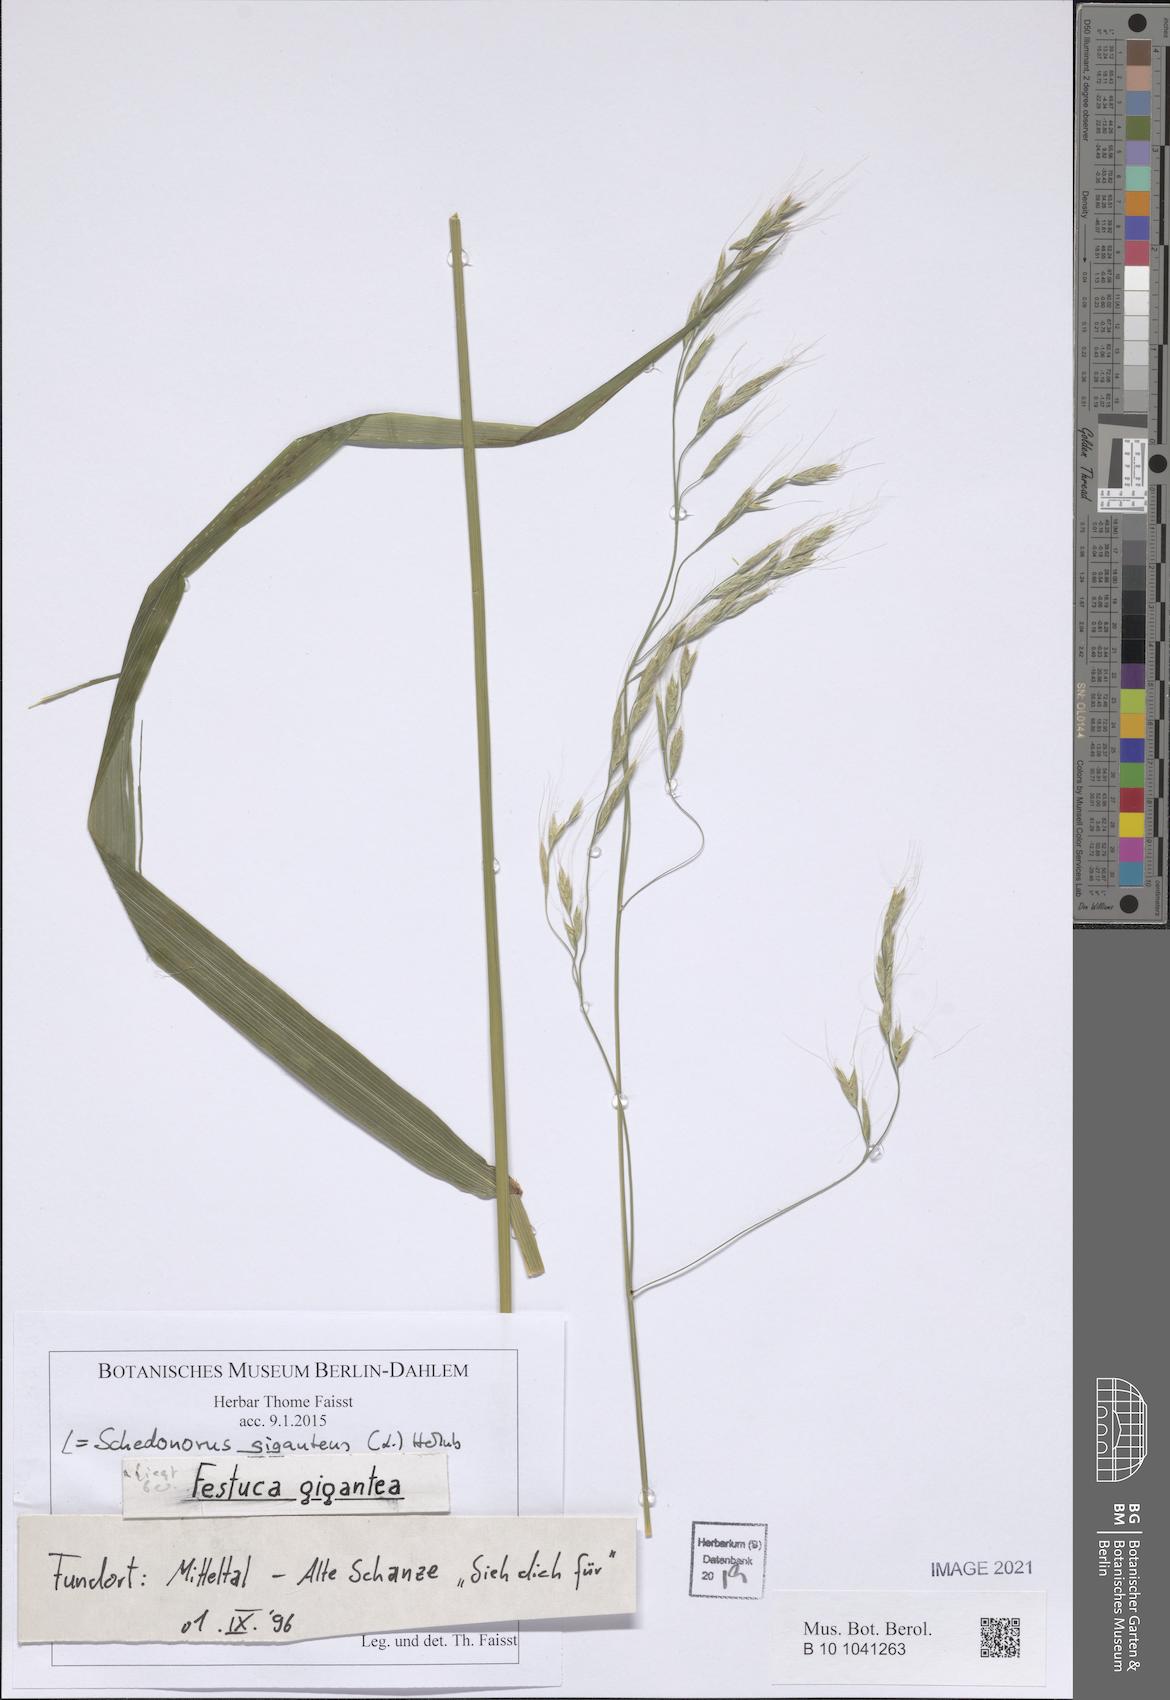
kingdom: Plantae
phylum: Tracheophyta
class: Liliopsida
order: Poales
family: Poaceae
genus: Lolium
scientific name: Lolium giganteum
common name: Giant fescue
